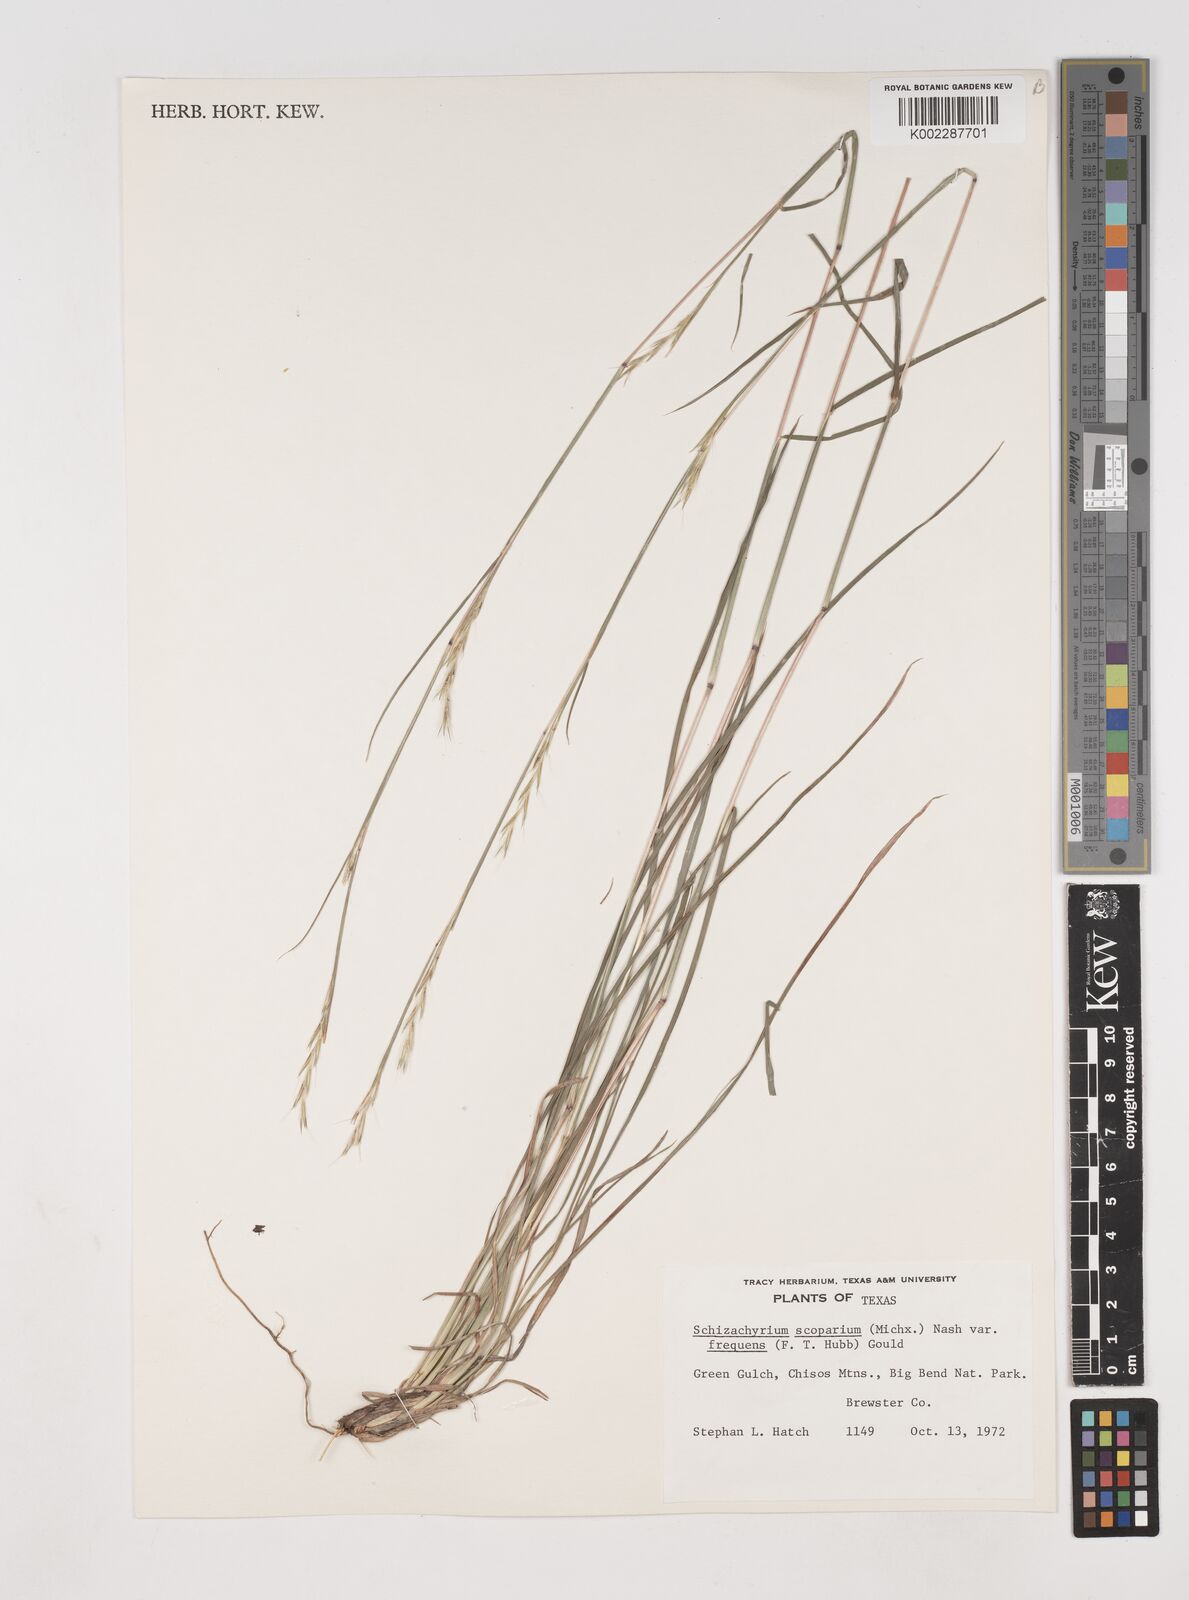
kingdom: Plantae
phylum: Tracheophyta
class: Liliopsida
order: Poales
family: Poaceae
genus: Schizachyrium
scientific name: Schizachyrium scoparium
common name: Little bluestem
